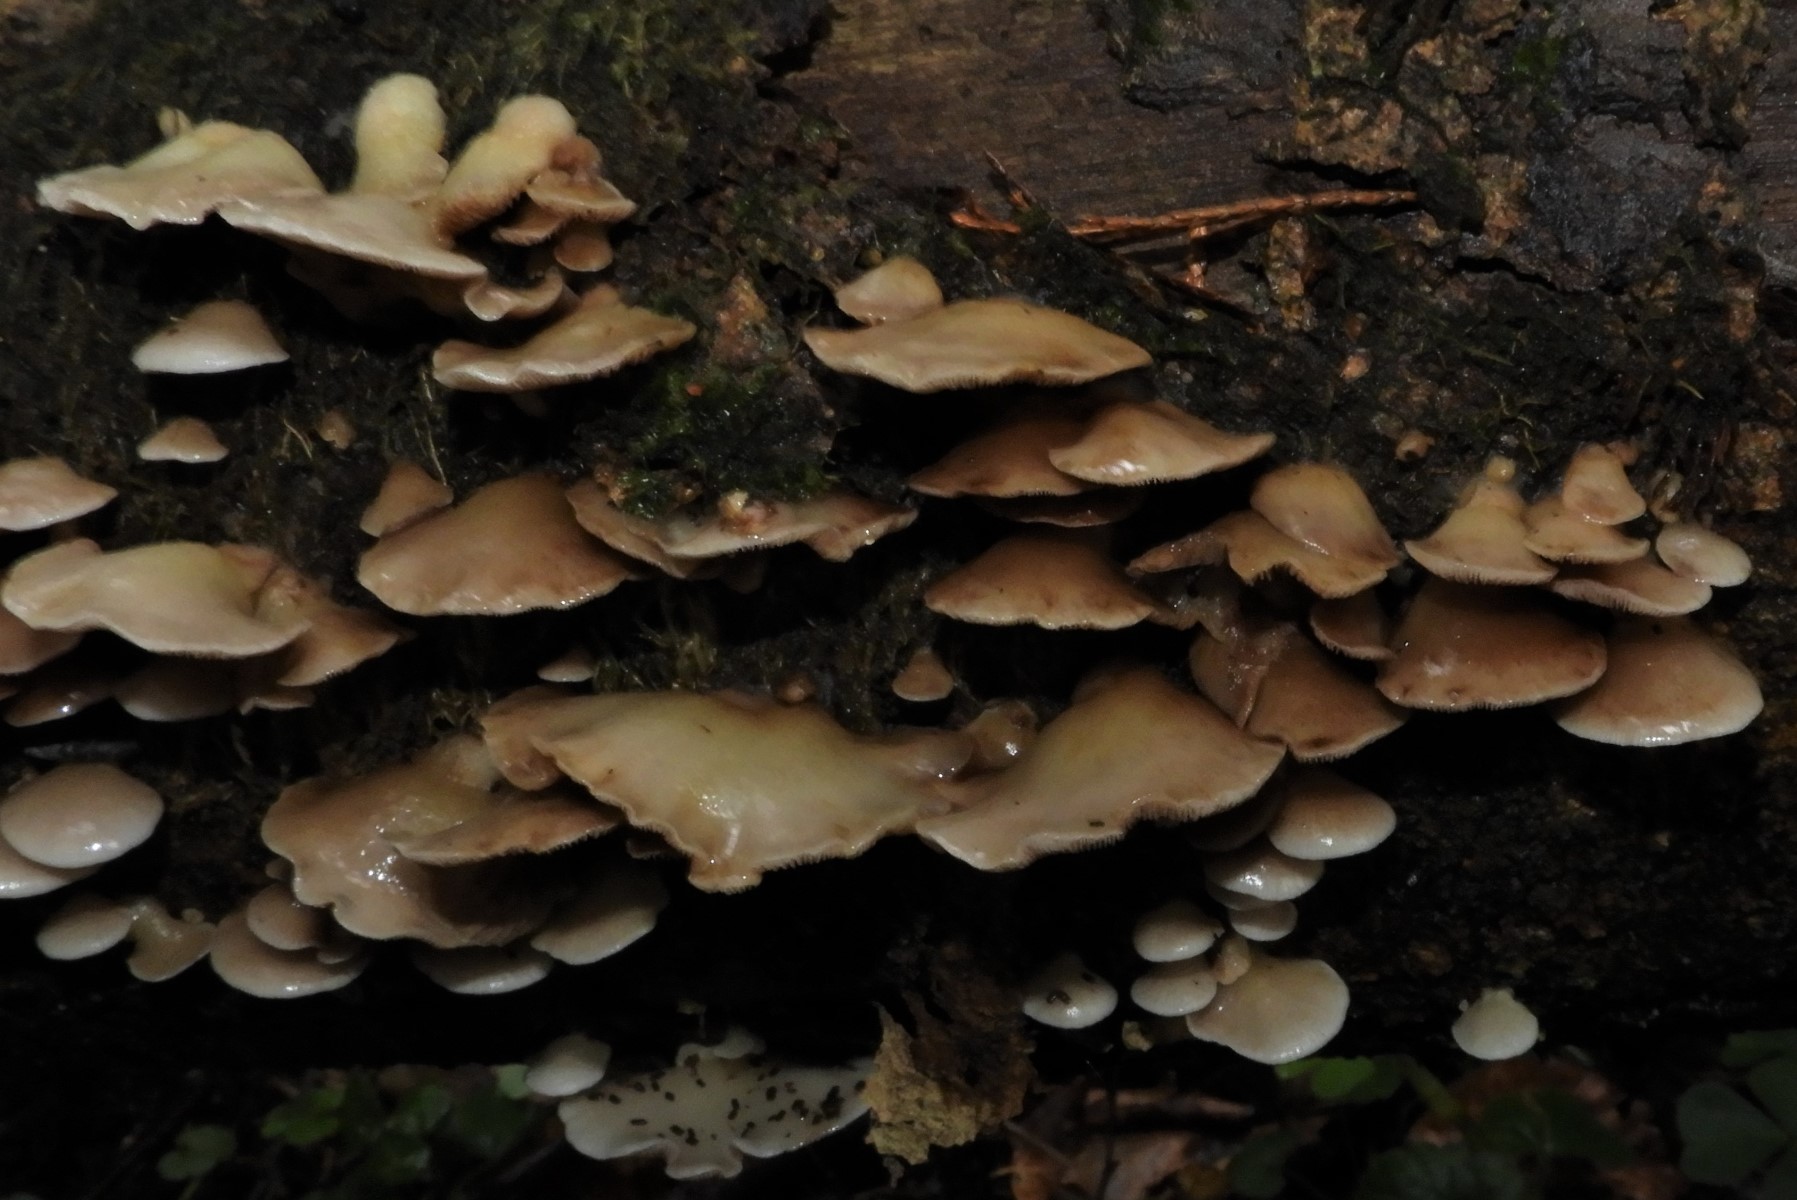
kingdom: Fungi
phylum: Basidiomycota
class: Agaricomycetes
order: Agaricales
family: Crepidotaceae
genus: Crepidotus
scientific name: Crepidotus mollis
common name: blød muslingesvamp
